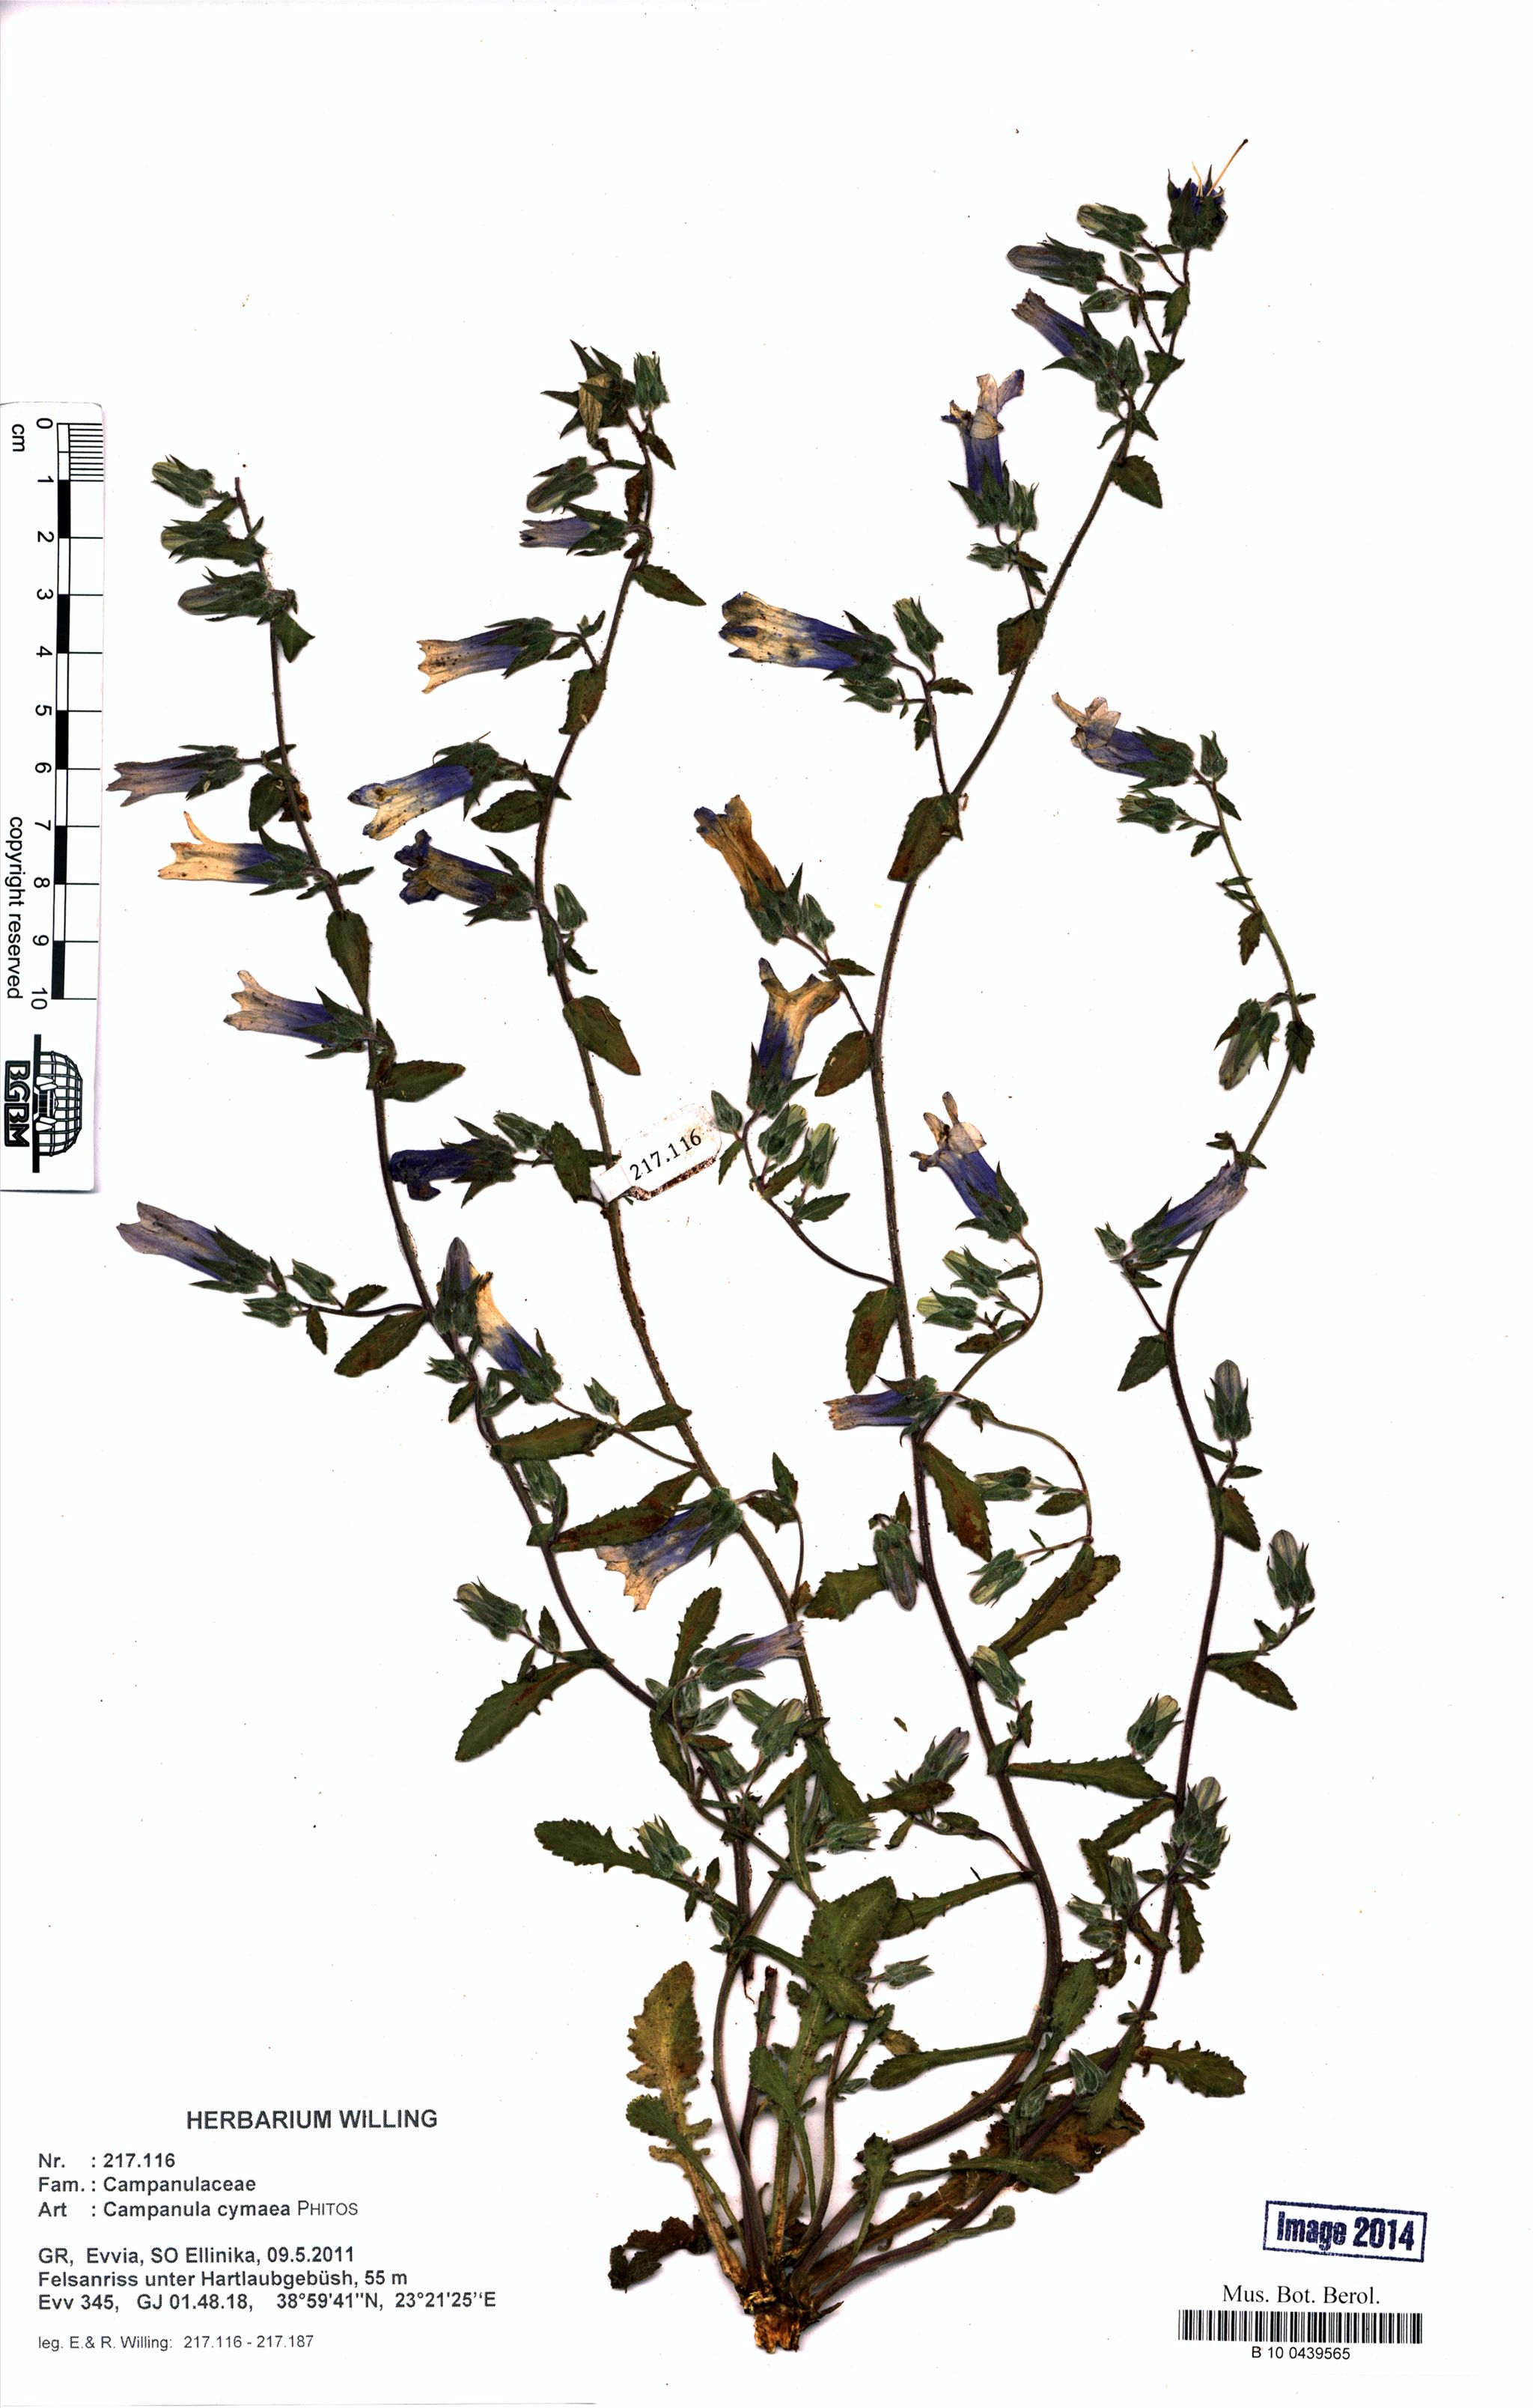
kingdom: Plantae
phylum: Tracheophyta
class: Magnoliopsida
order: Asterales
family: Campanulaceae
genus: Campanula
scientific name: Campanula cymaea
